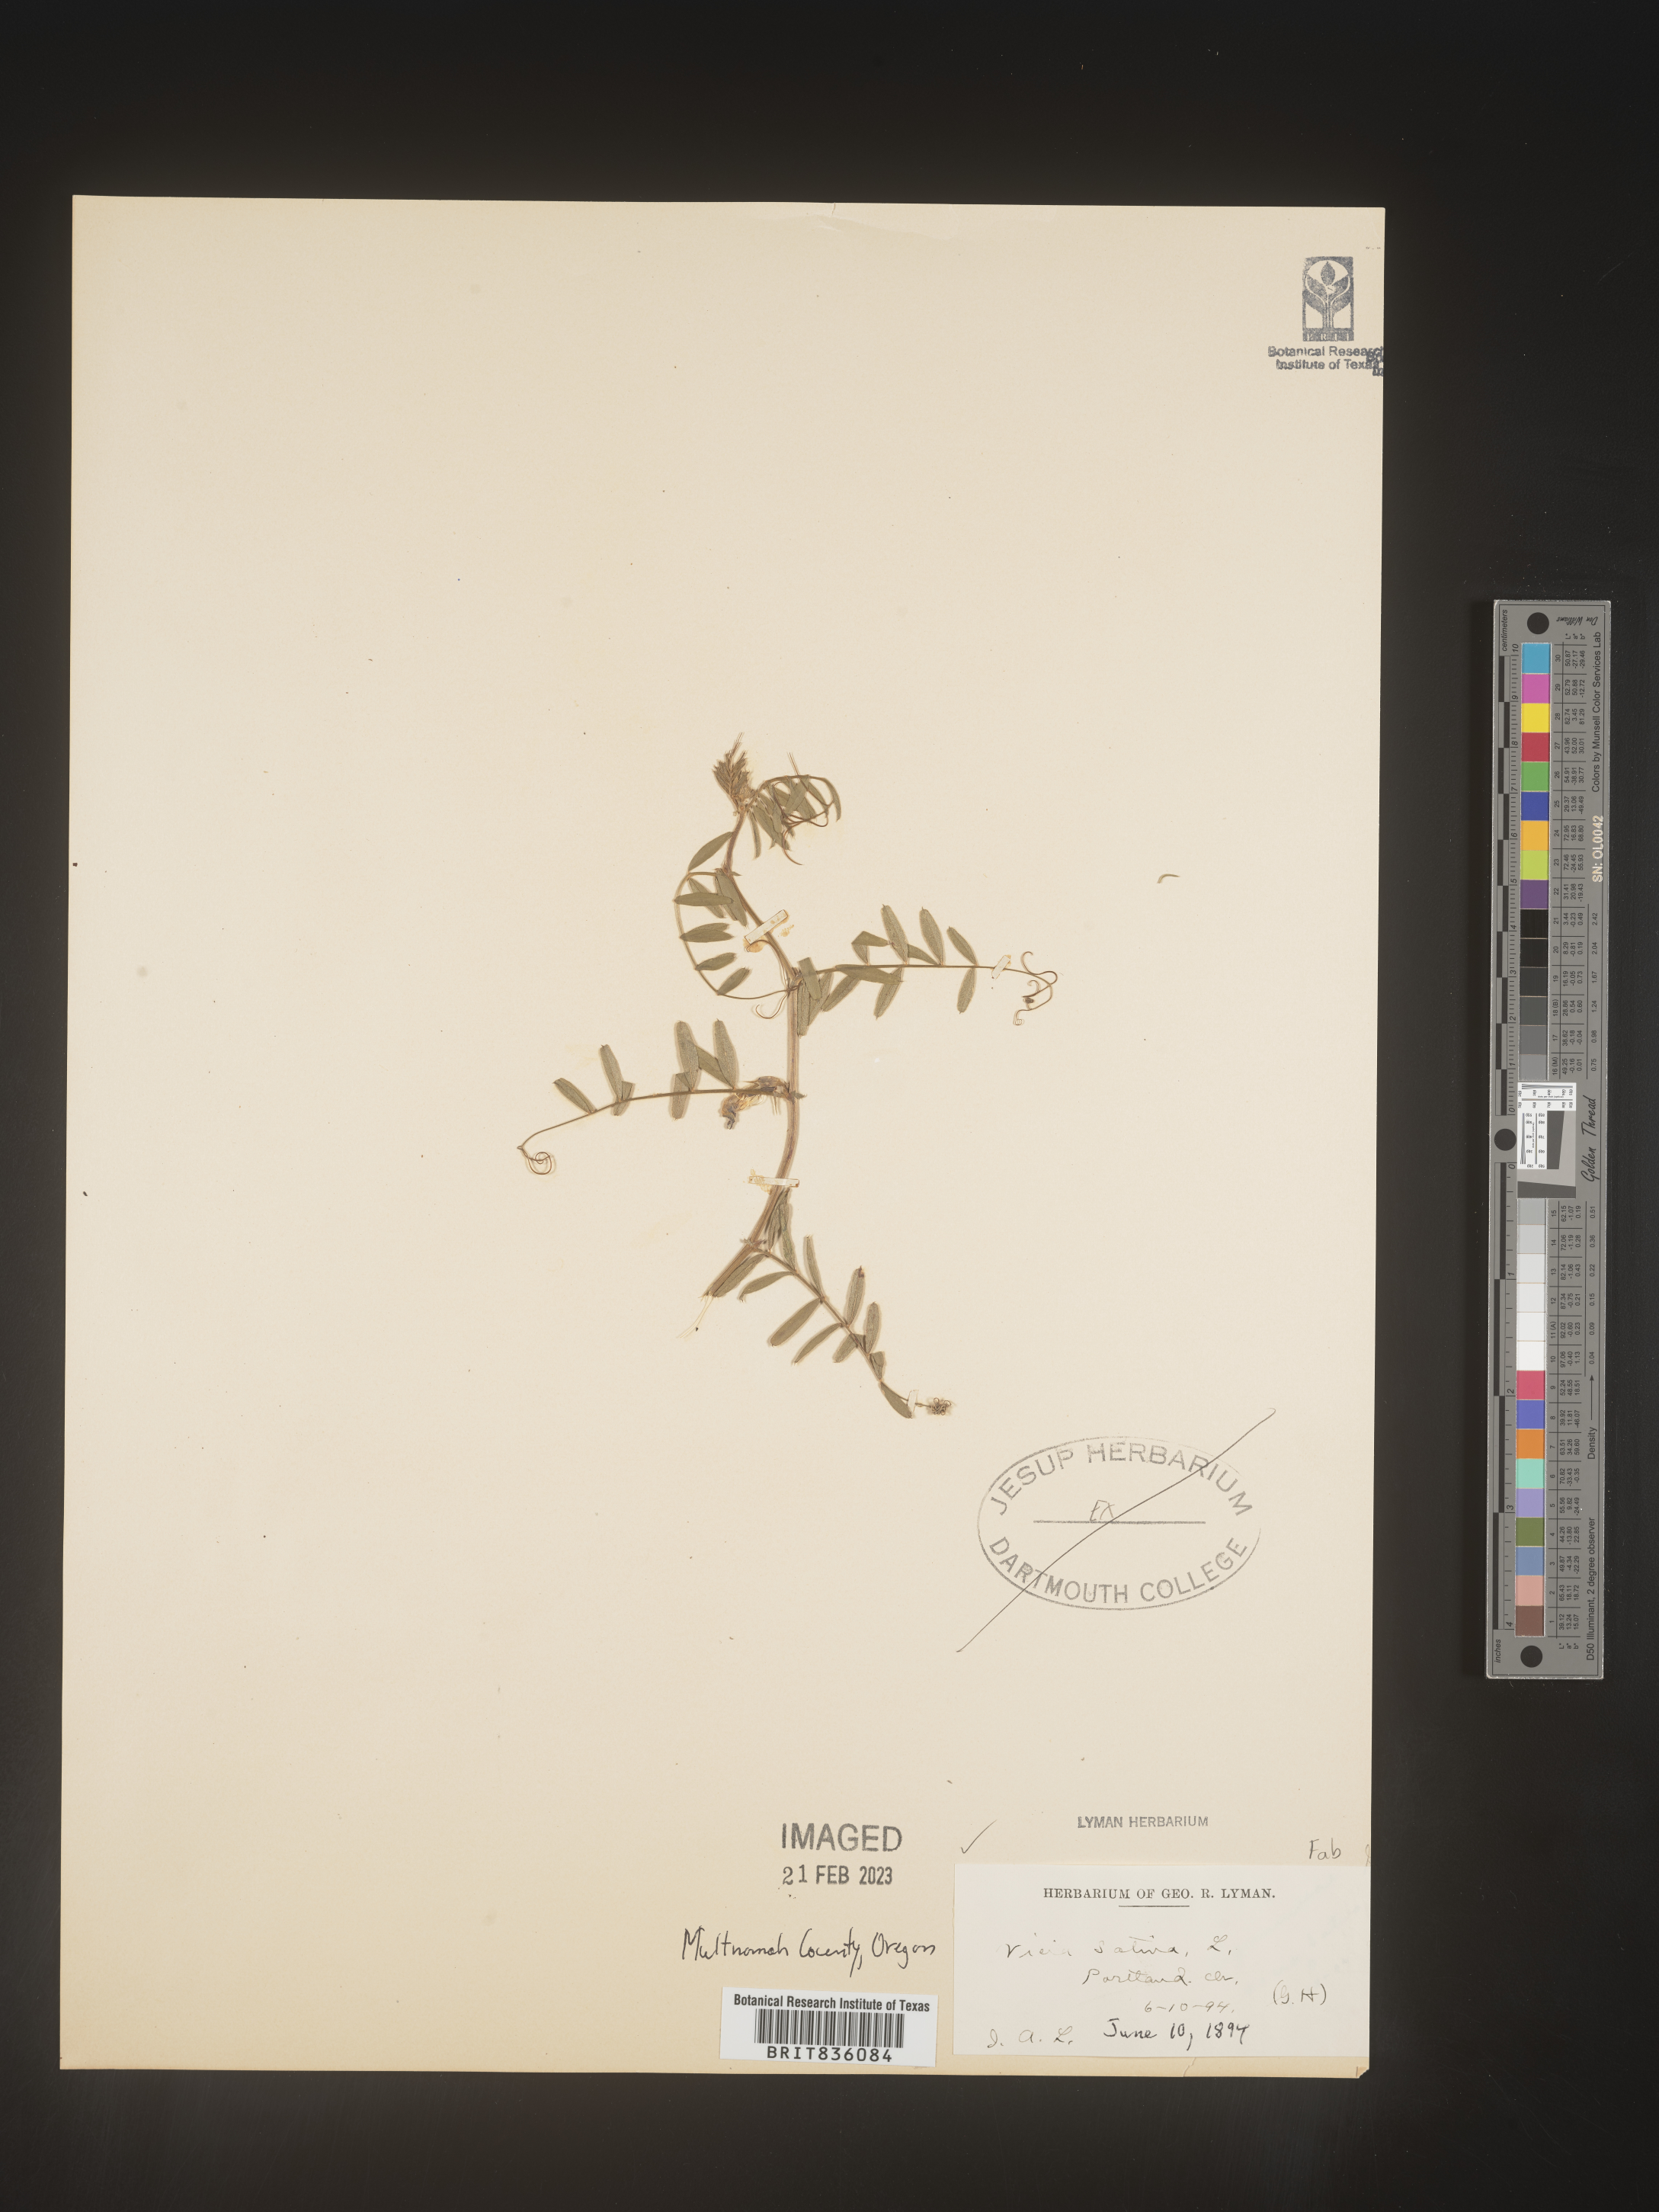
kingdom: Plantae
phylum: Tracheophyta
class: Magnoliopsida
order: Fabales
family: Fabaceae
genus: Vicia
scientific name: Vicia sativa
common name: Garden vetch
